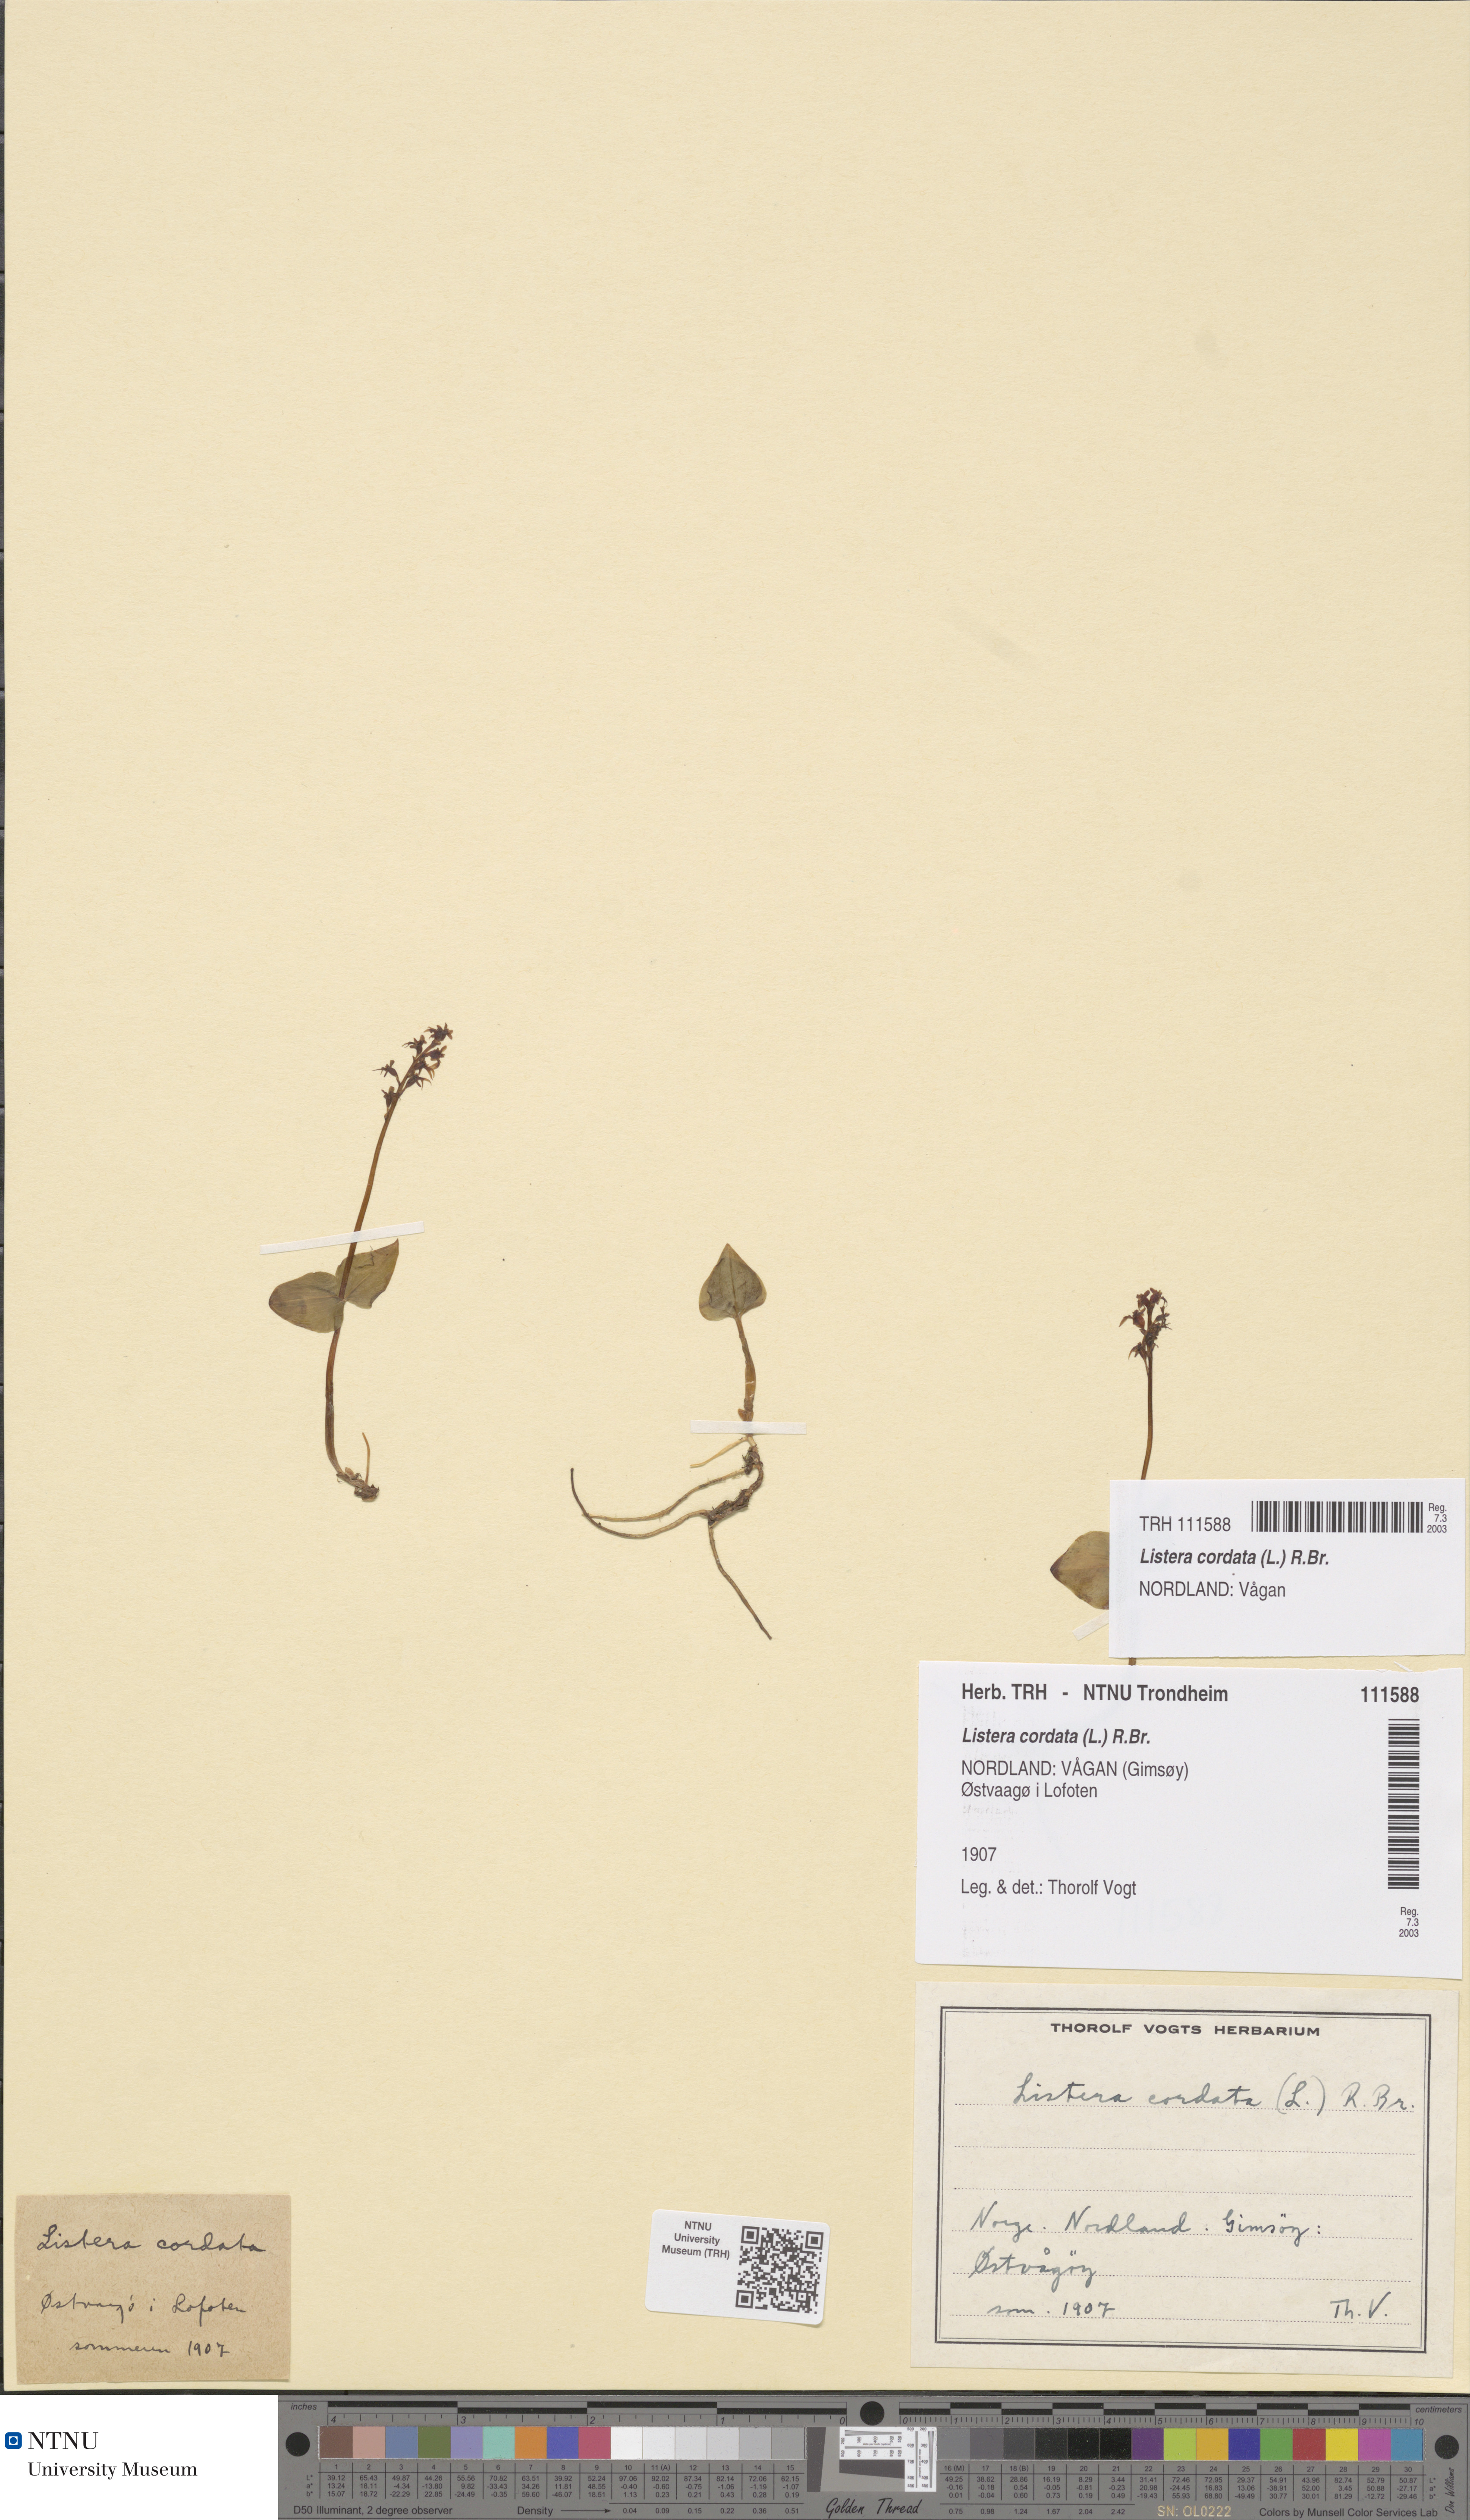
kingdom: Plantae
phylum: Tracheophyta
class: Liliopsida
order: Asparagales
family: Orchidaceae
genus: Neottia
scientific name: Neottia cordata
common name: Lesser twayblade
